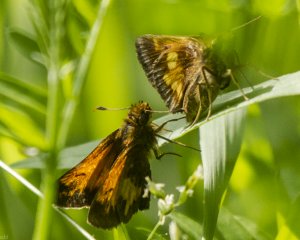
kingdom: Animalia
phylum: Arthropoda
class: Insecta
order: Lepidoptera
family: Hesperiidae
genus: Lon
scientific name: Lon hobomok
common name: Hobomok Skipper
